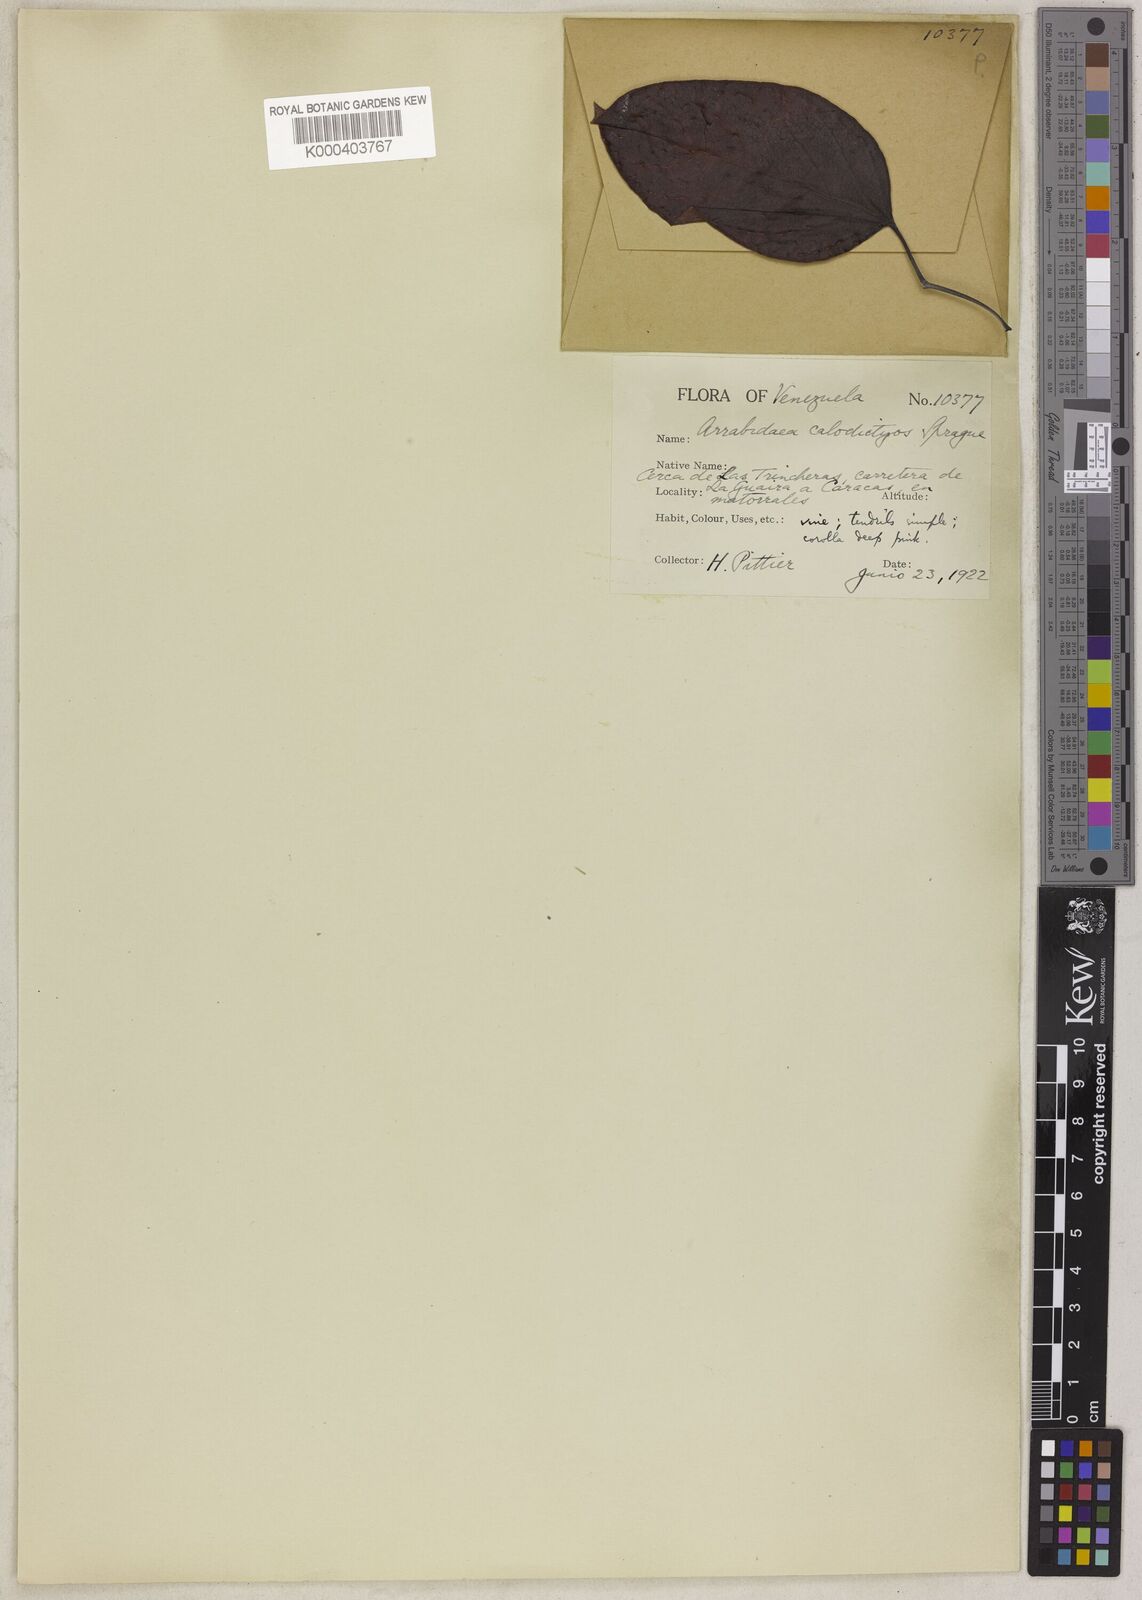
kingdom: Plantae
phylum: Tracheophyta
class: Magnoliopsida
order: Lamiales
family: Bignoniaceae
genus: Fridericia
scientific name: Fridericia candicans
